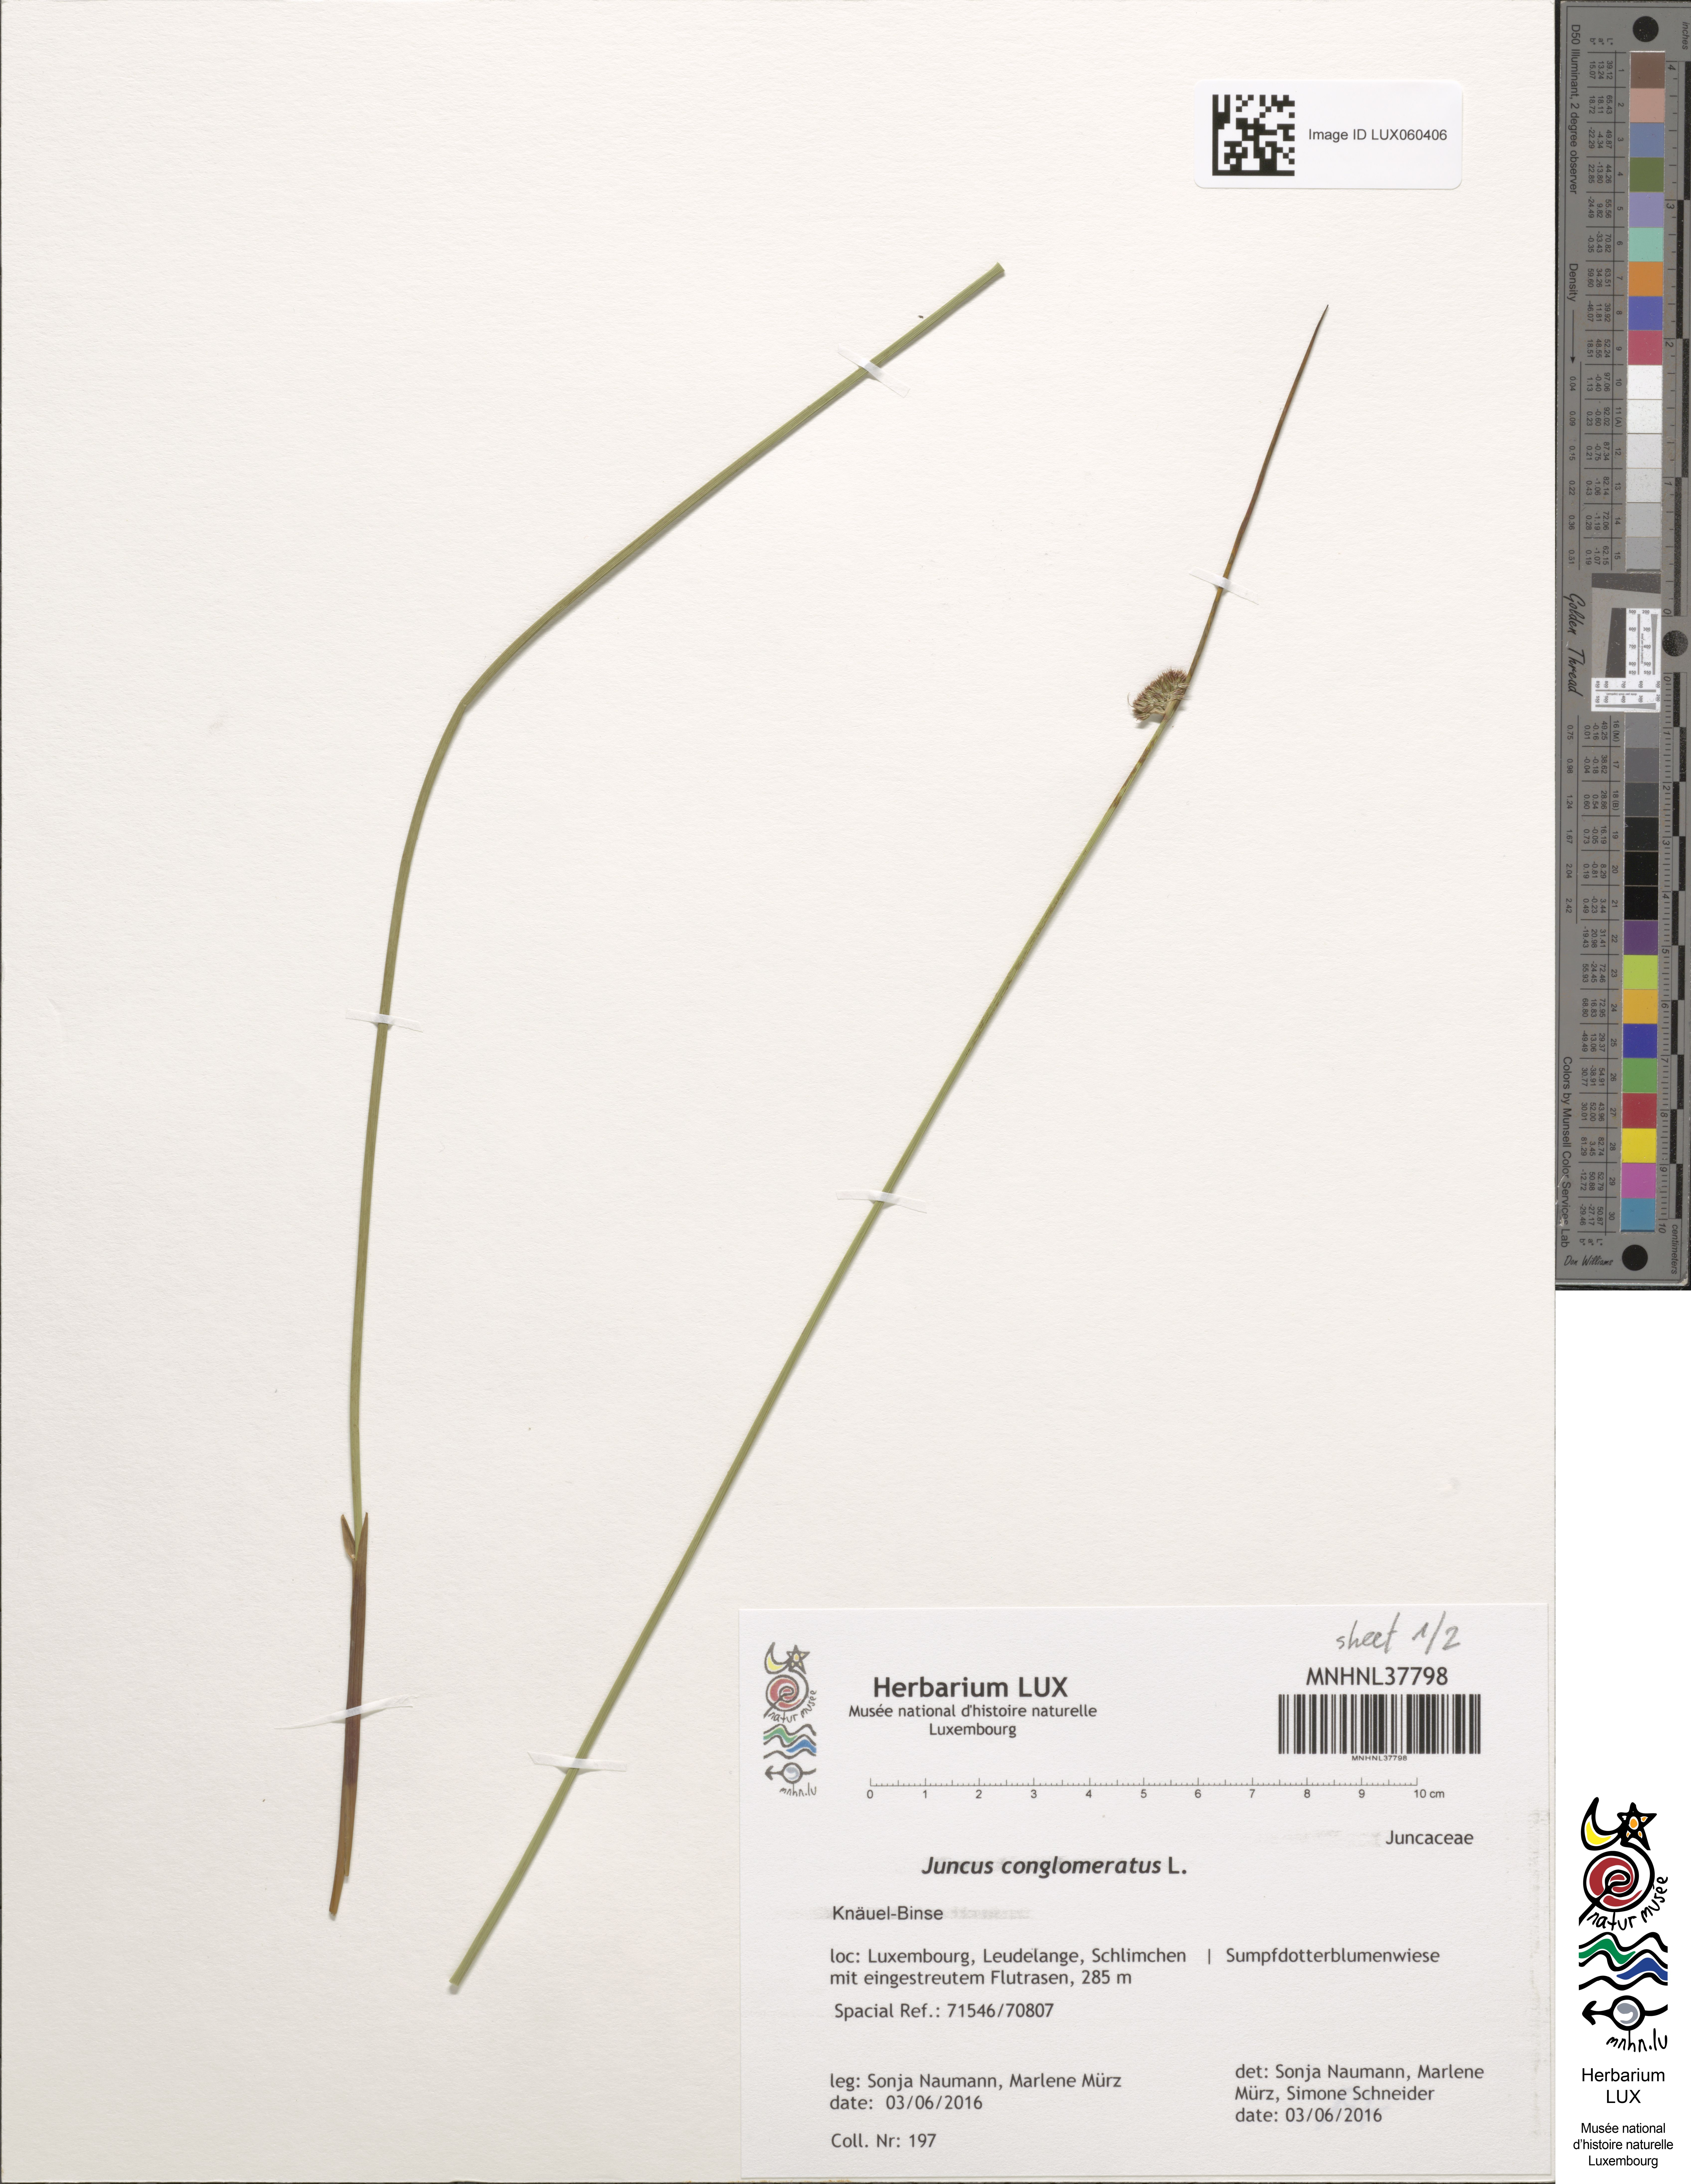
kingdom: Plantae
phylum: Tracheophyta
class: Liliopsida
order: Poales
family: Juncaceae
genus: Juncus
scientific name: Juncus conglomeratus
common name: Compact rush
